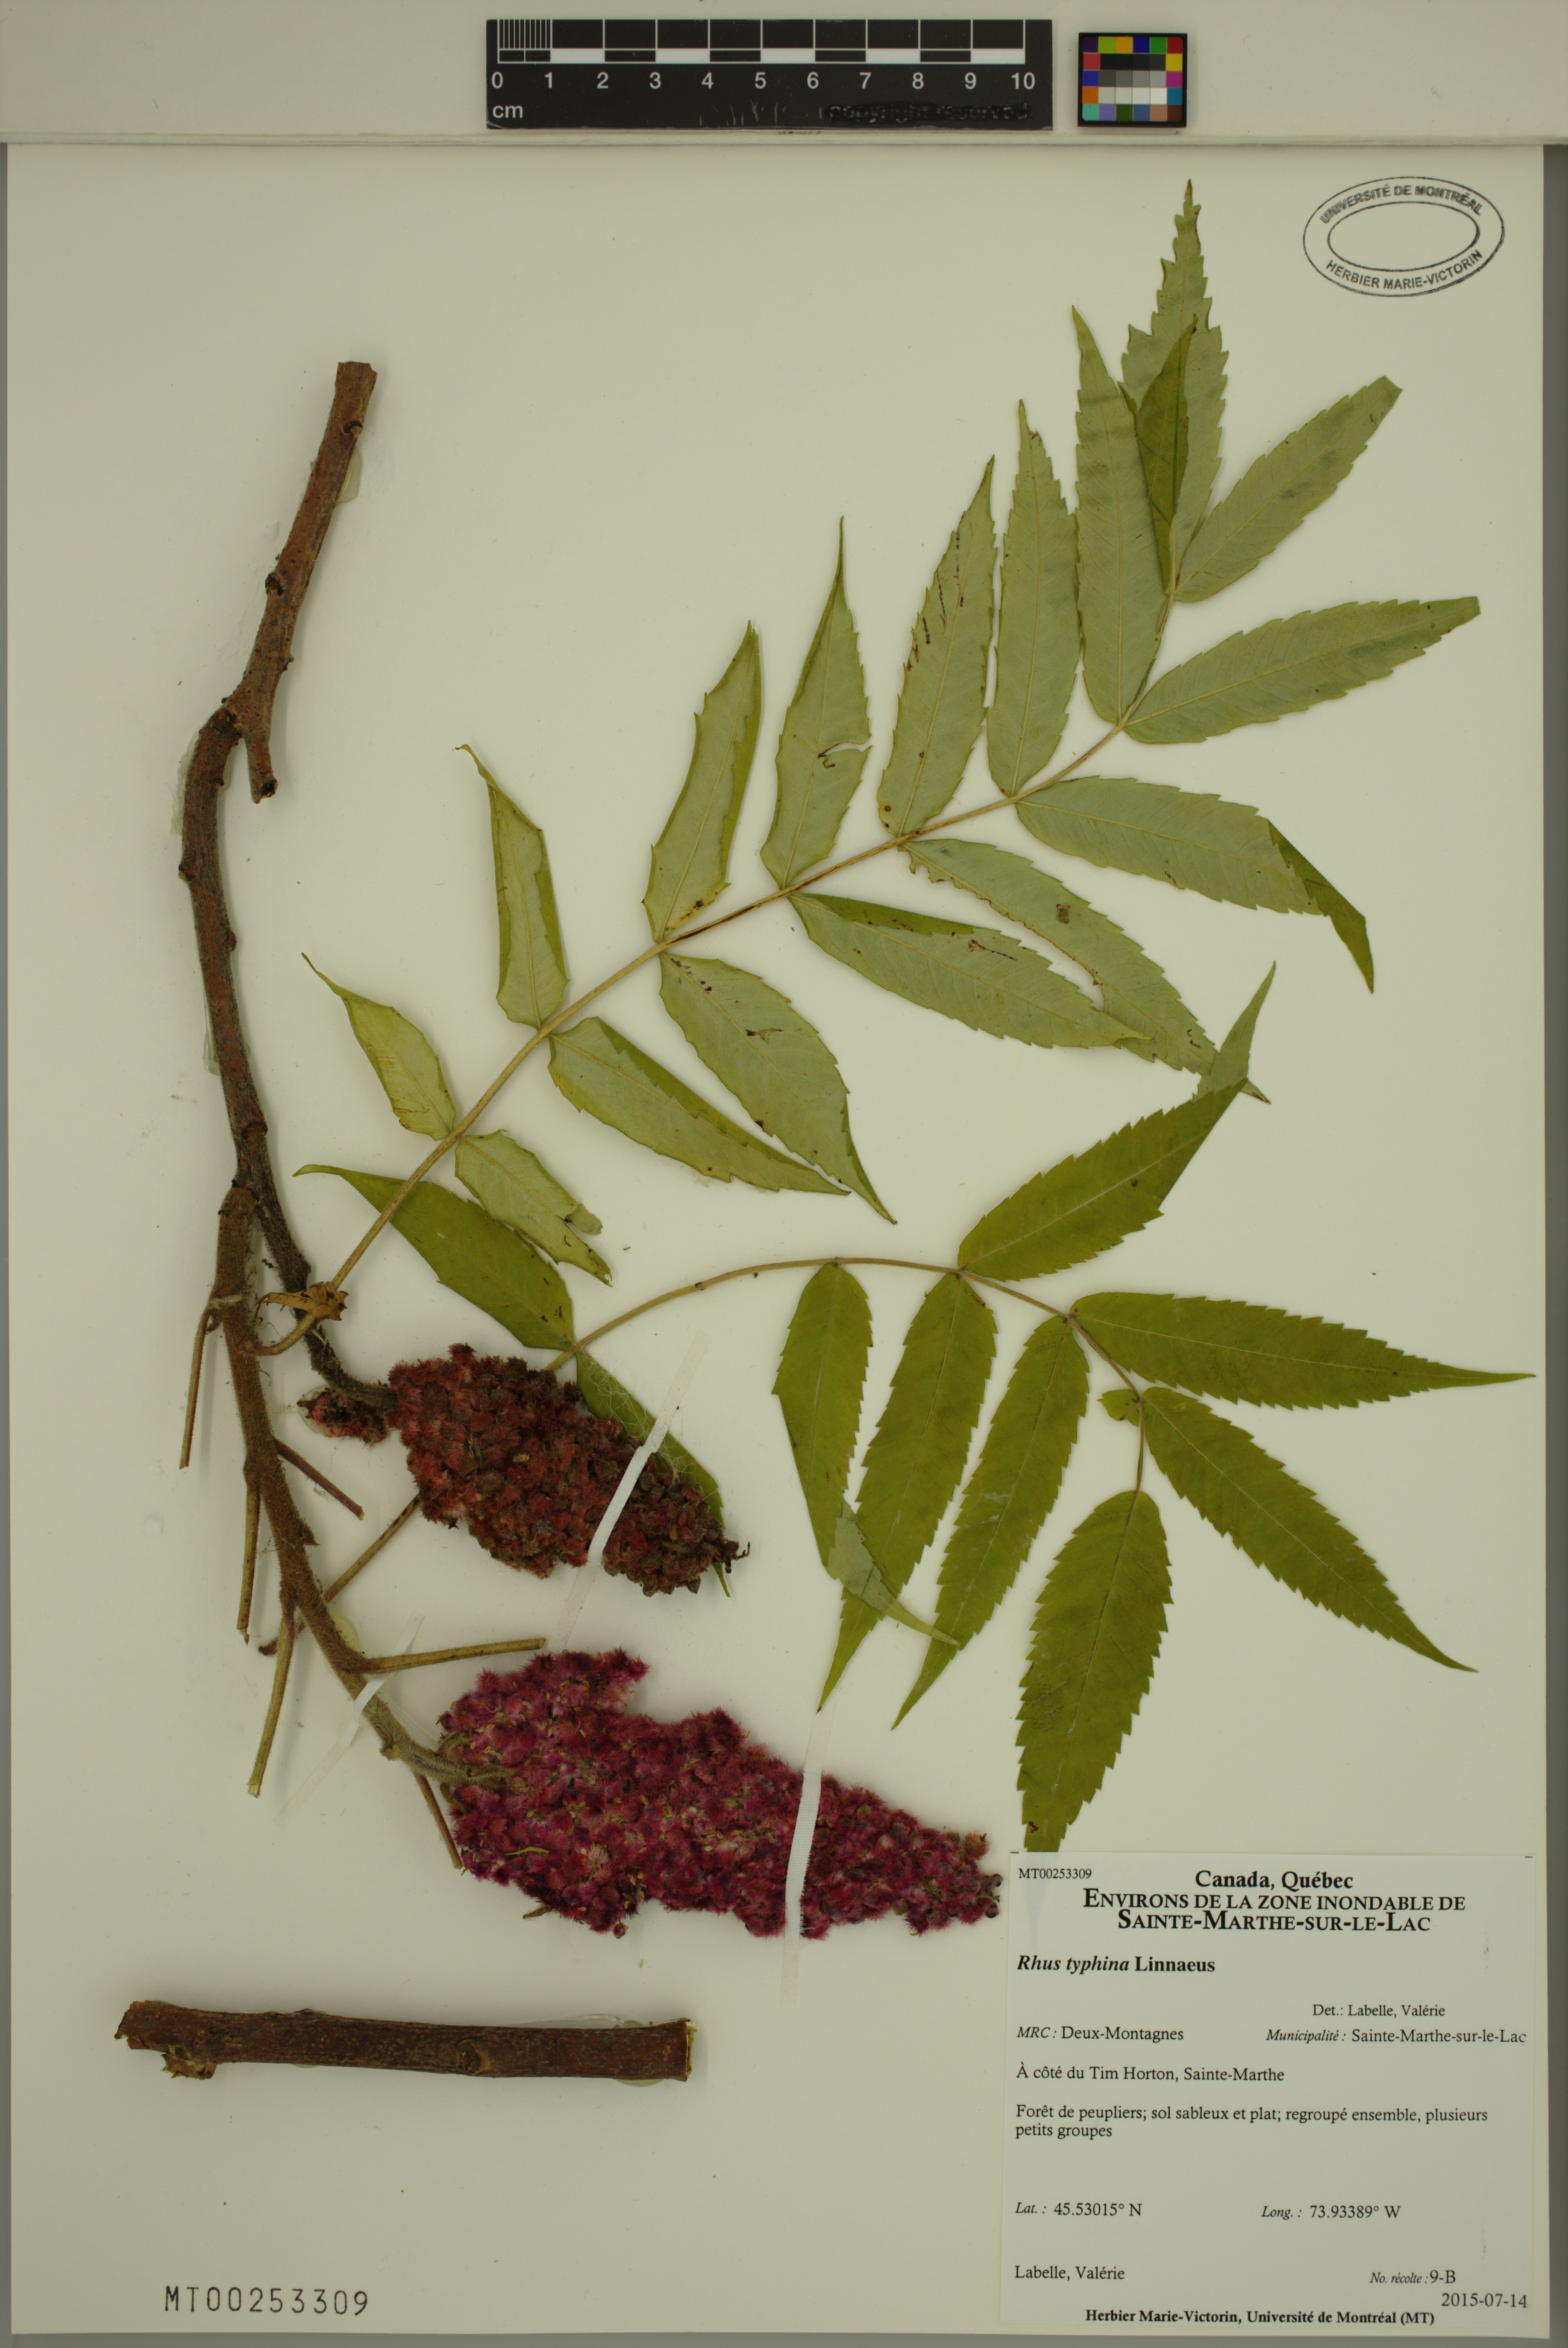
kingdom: Plantae
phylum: Tracheophyta
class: Magnoliopsida
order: Sapindales
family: Anacardiaceae
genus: Rhus
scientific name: Rhus typhina
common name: Staghorn sumac
